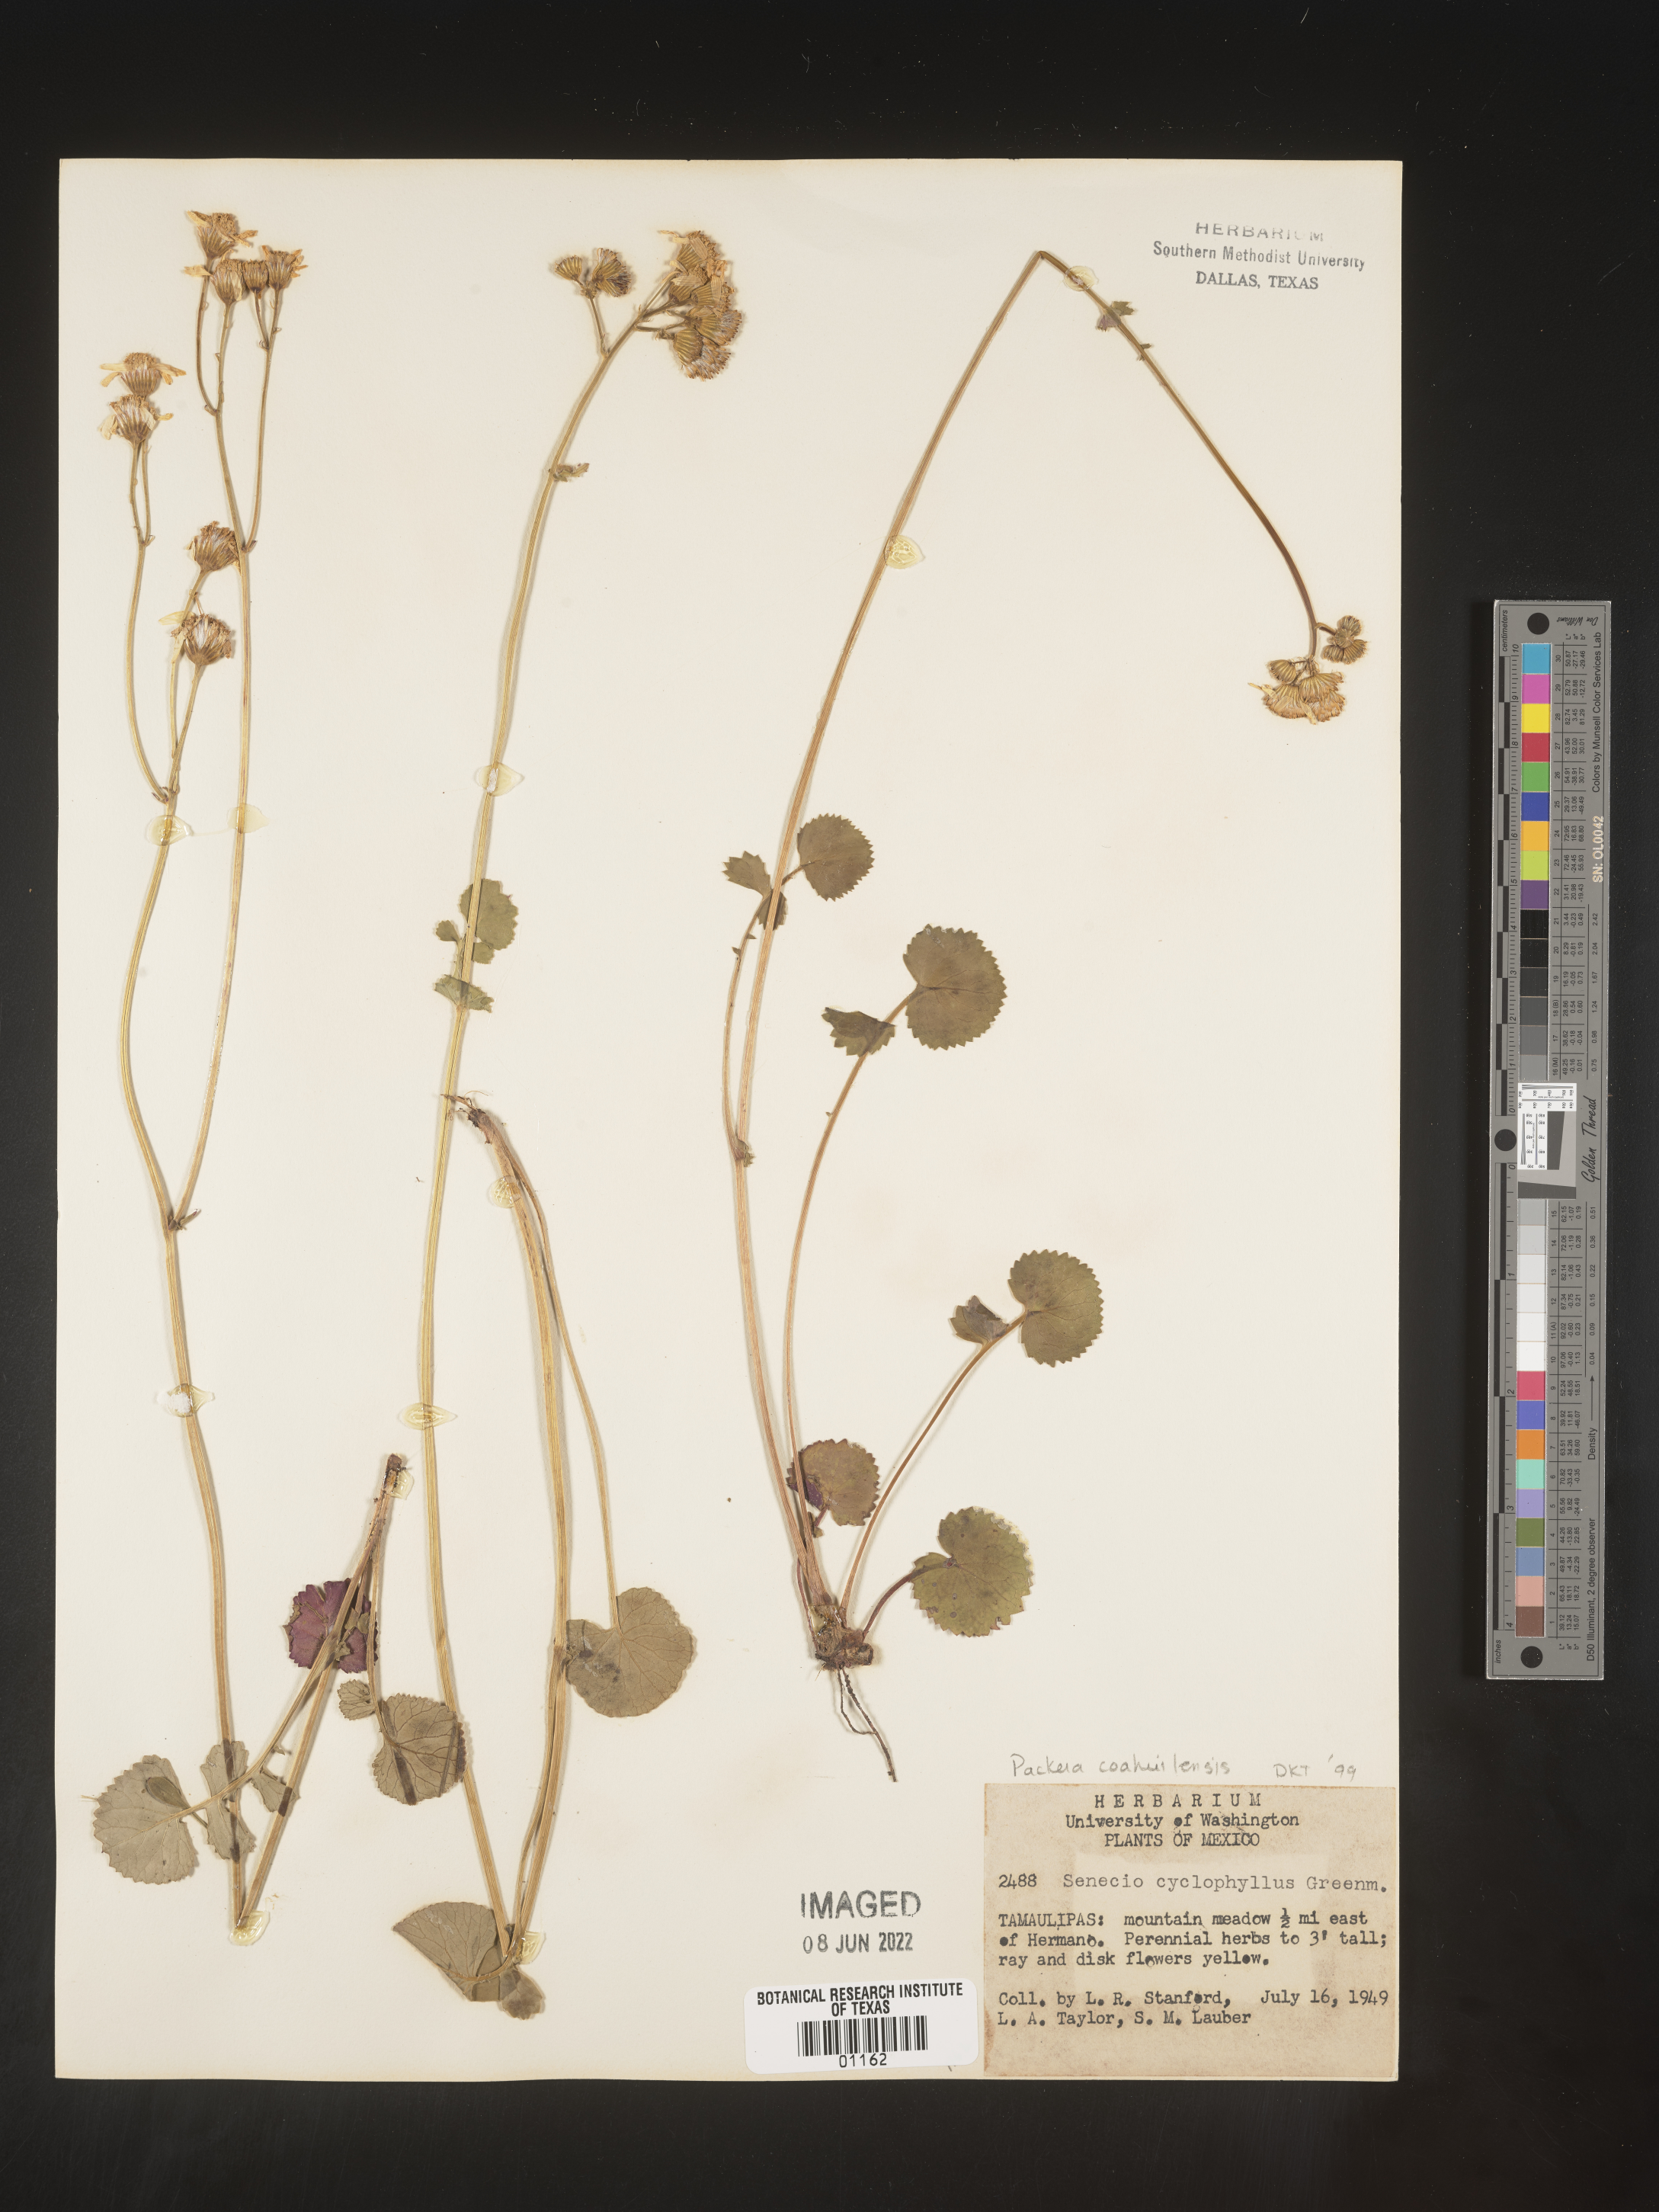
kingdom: Plantae
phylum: Tracheophyta
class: Magnoliopsida
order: Asterales
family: Asteraceae
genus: Packera
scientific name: Packera
